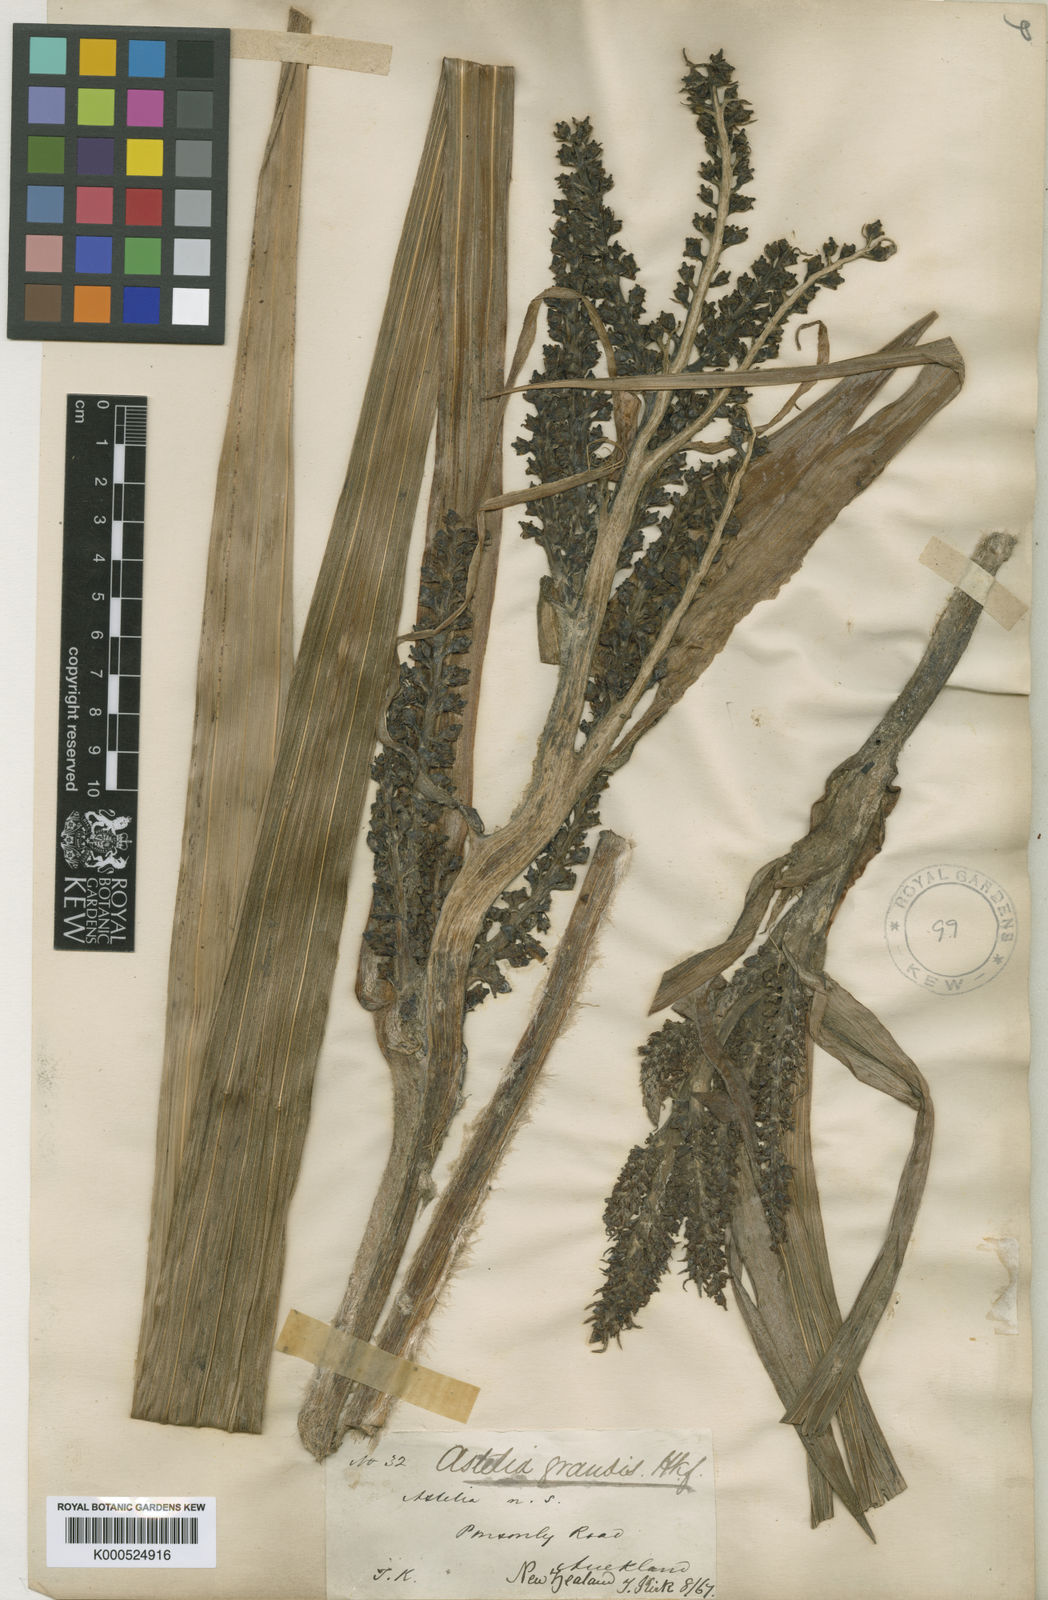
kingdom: Plantae
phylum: Tracheophyta
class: Liliopsida
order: Asparagales
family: Asteliaceae
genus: Astelia
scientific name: Astelia grandis
